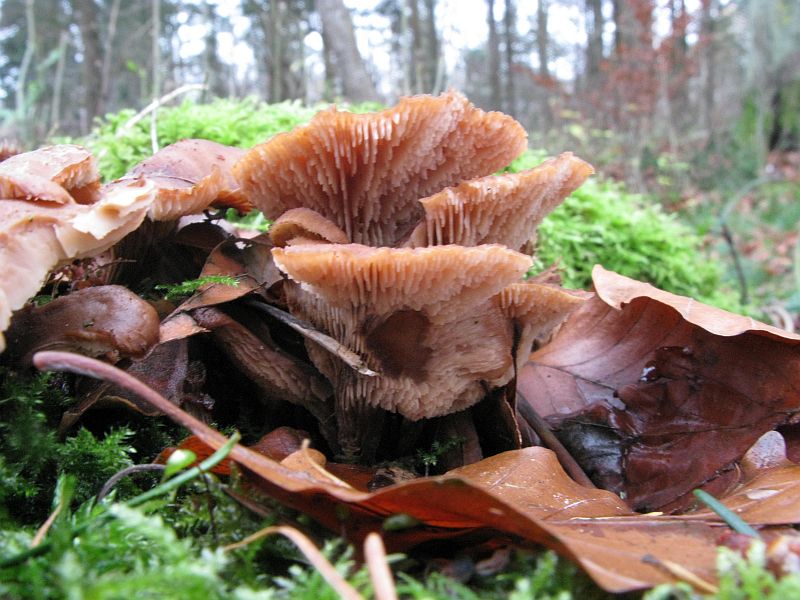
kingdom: Fungi
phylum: Basidiomycota
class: Agaricomycetes
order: Russulales
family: Auriscalpiaceae
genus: Lentinellus
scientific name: Lentinellus cochleatus
